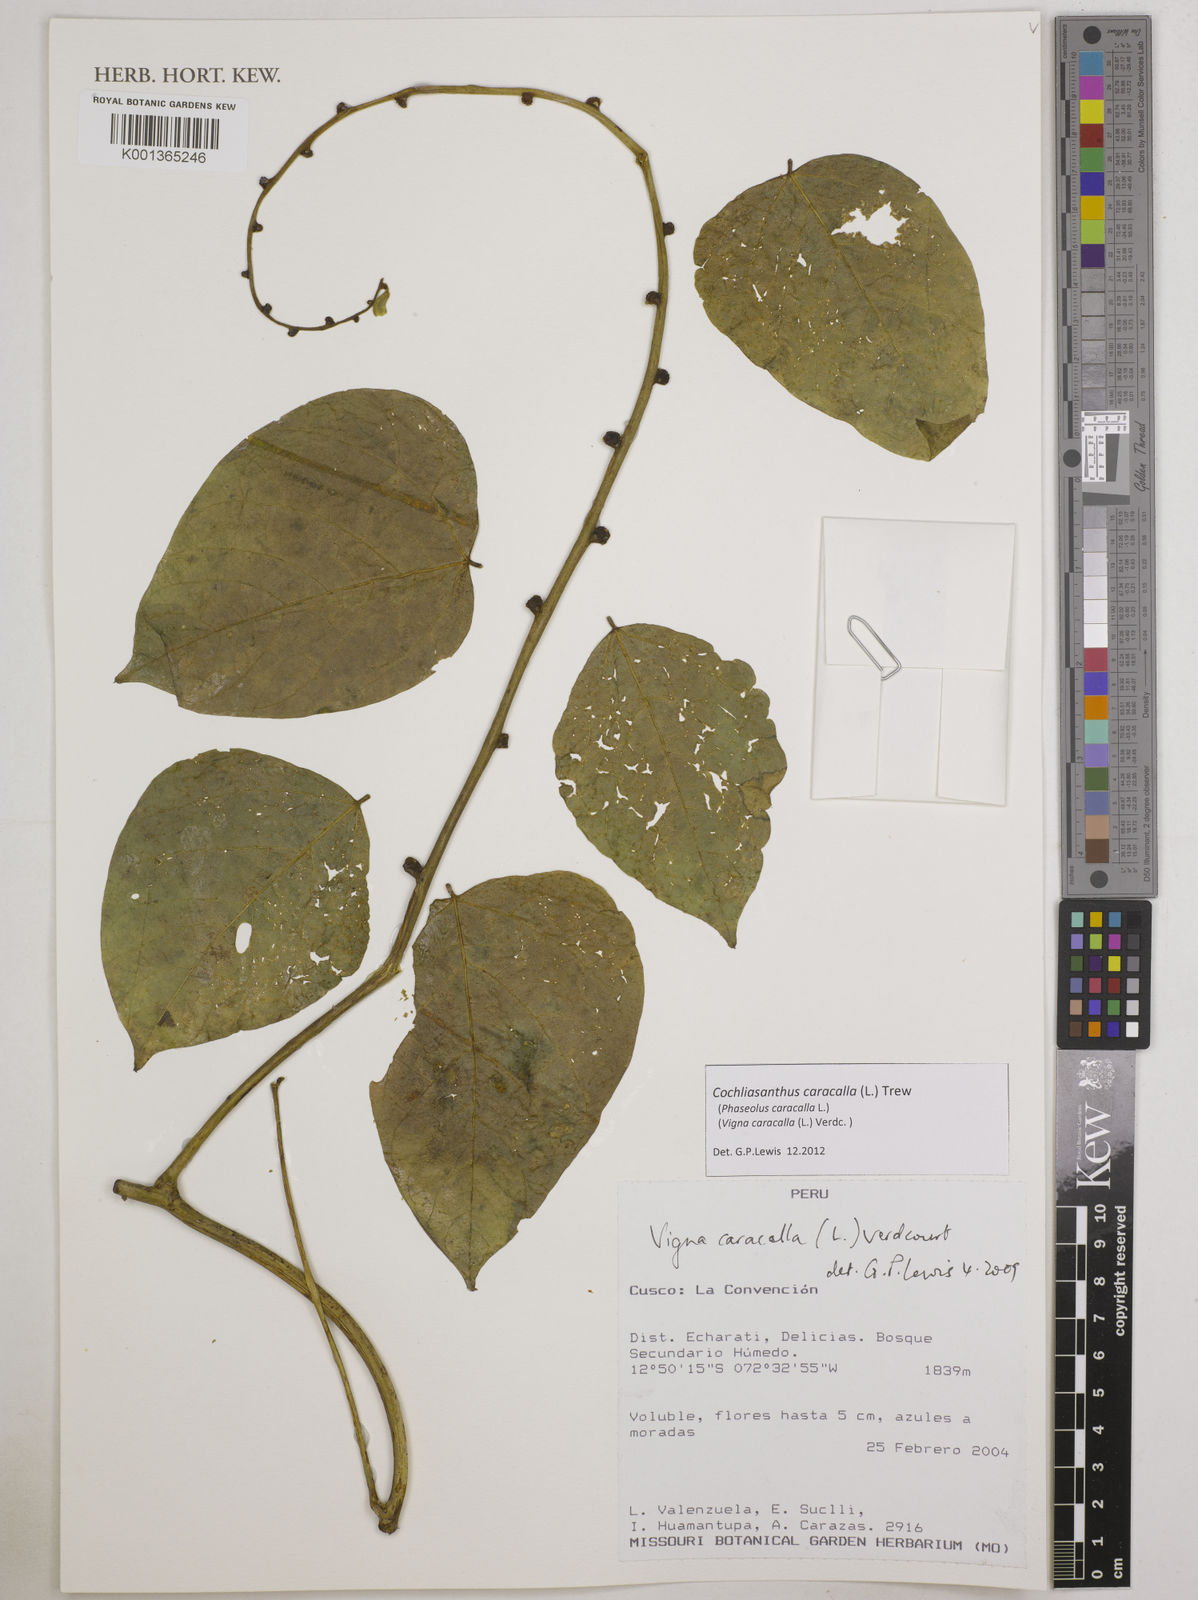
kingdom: Plantae
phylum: Tracheophyta
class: Magnoliopsida
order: Fabales
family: Fabaceae
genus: Cochliasanthus
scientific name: Cochliasanthus caracalla
